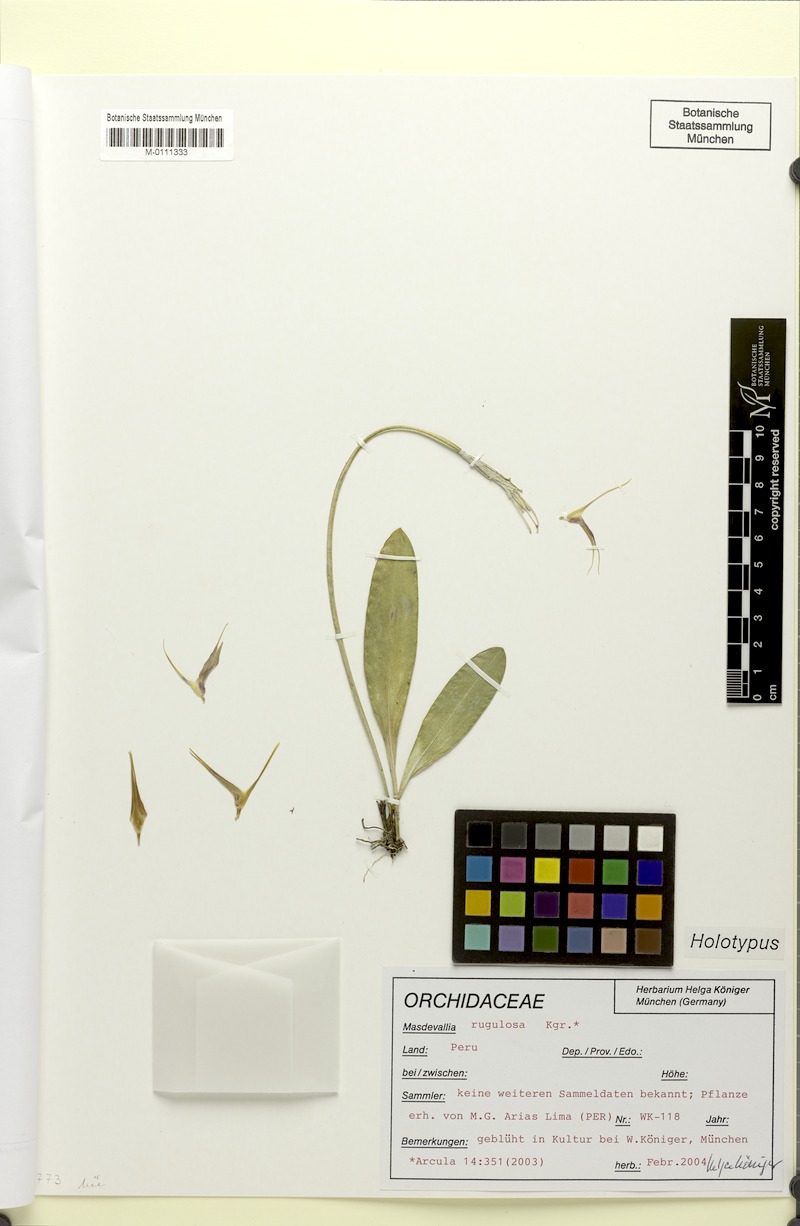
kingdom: Plantae
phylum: Tracheophyta
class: Liliopsida
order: Asparagales
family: Orchidaceae
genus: Masdevallia
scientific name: Masdevallia rugulosa
